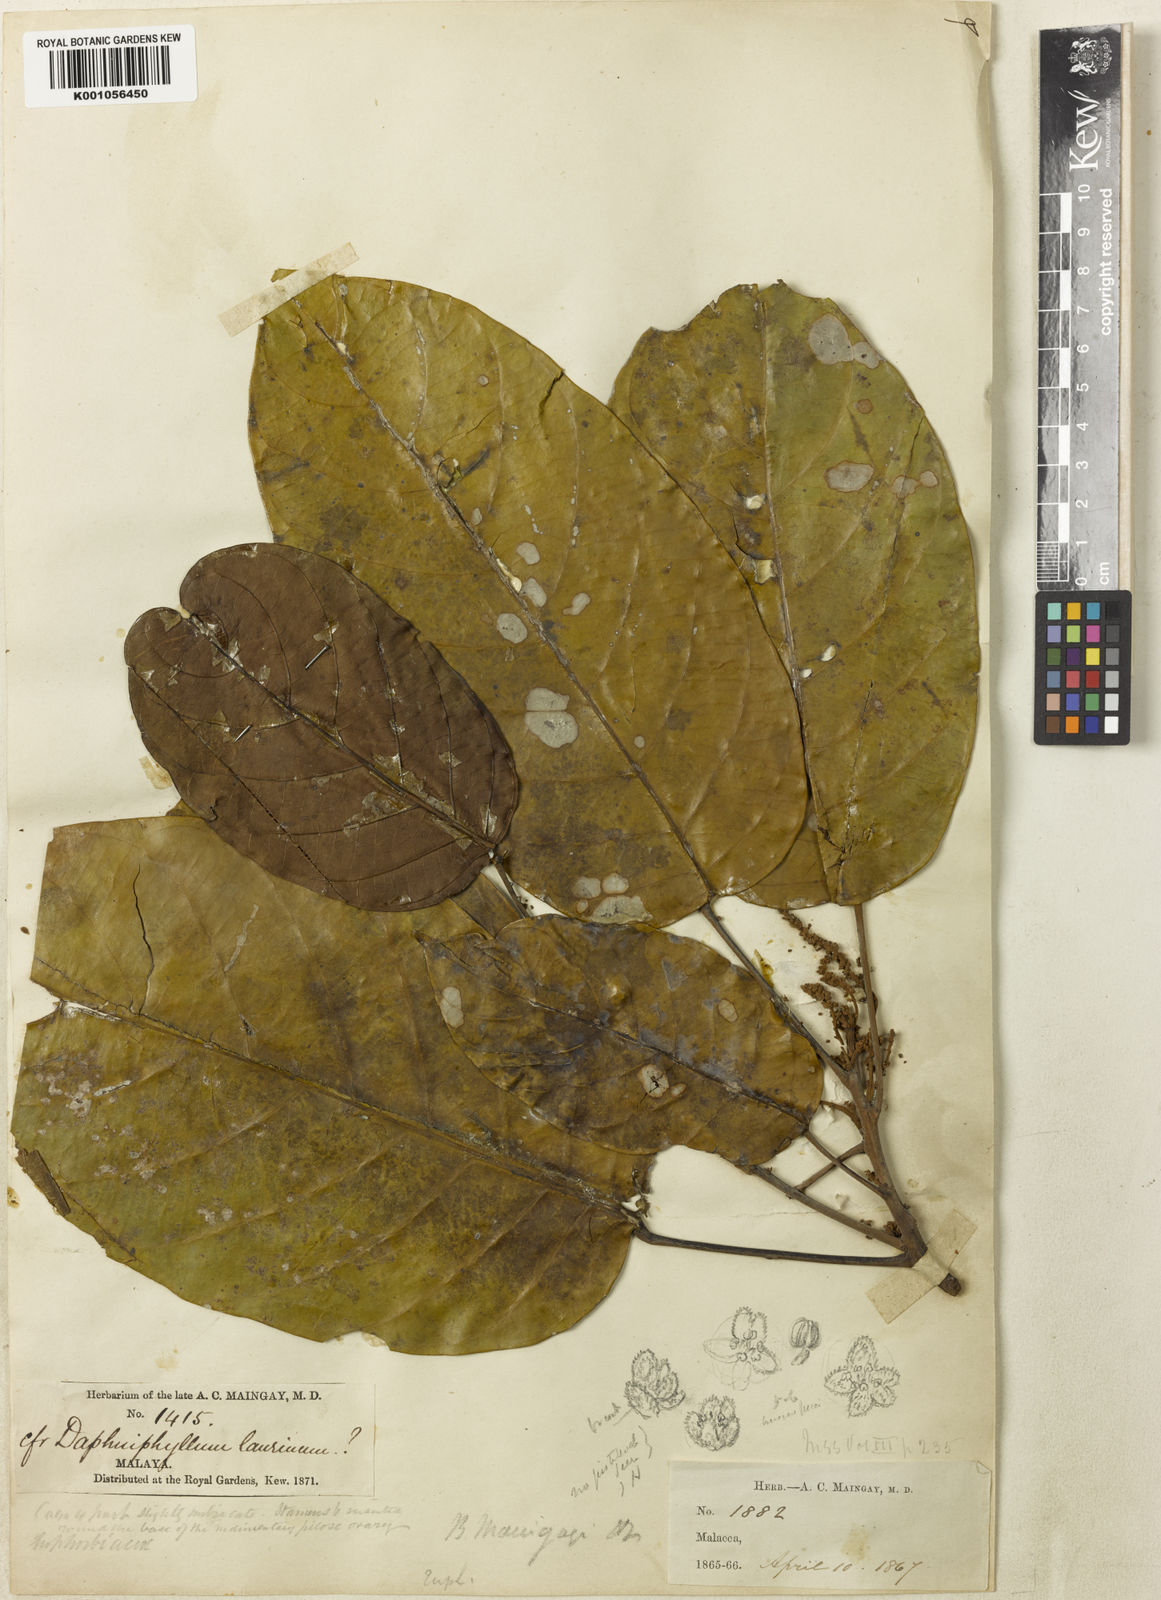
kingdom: Plantae
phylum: Tracheophyta
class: Magnoliopsida
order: Malpighiales
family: Phyllanthaceae
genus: Baccaurea
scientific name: Baccaurea maingayi
